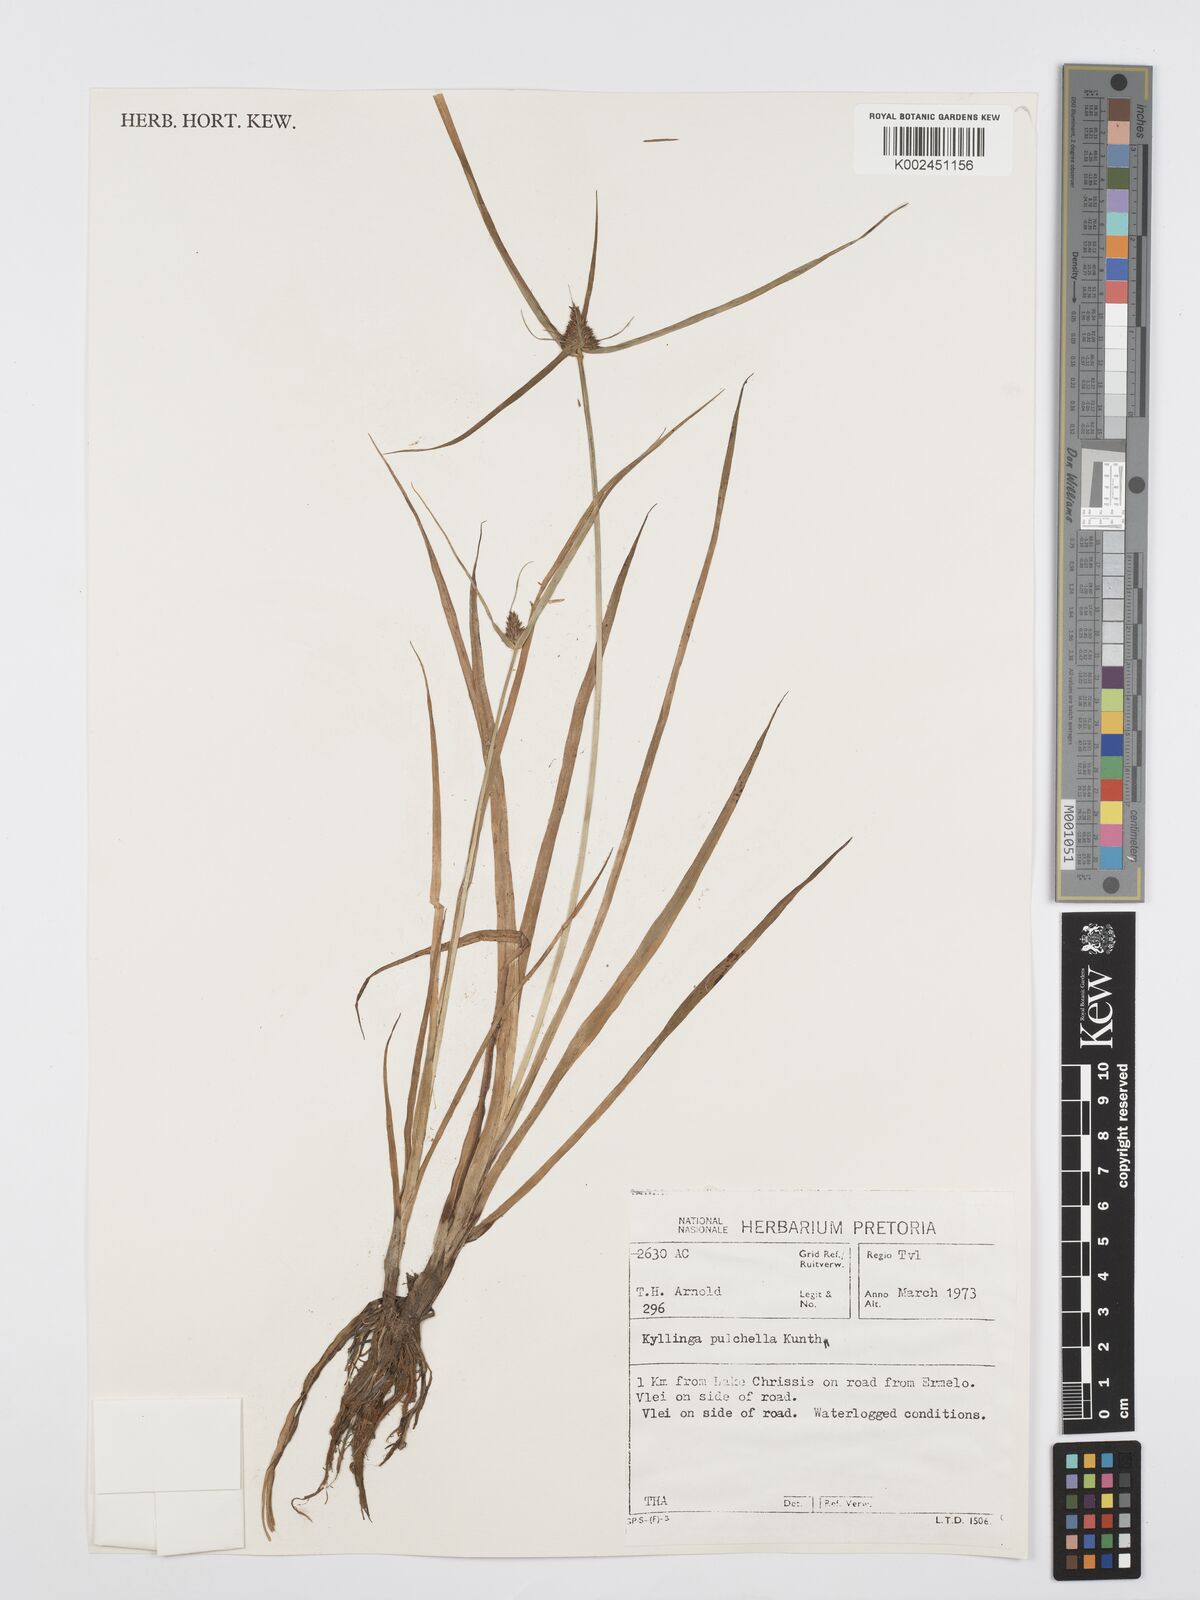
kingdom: Plantae
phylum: Tracheophyta
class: Liliopsida
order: Poales
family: Cyperaceae
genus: Cyperus
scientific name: Cyperus
